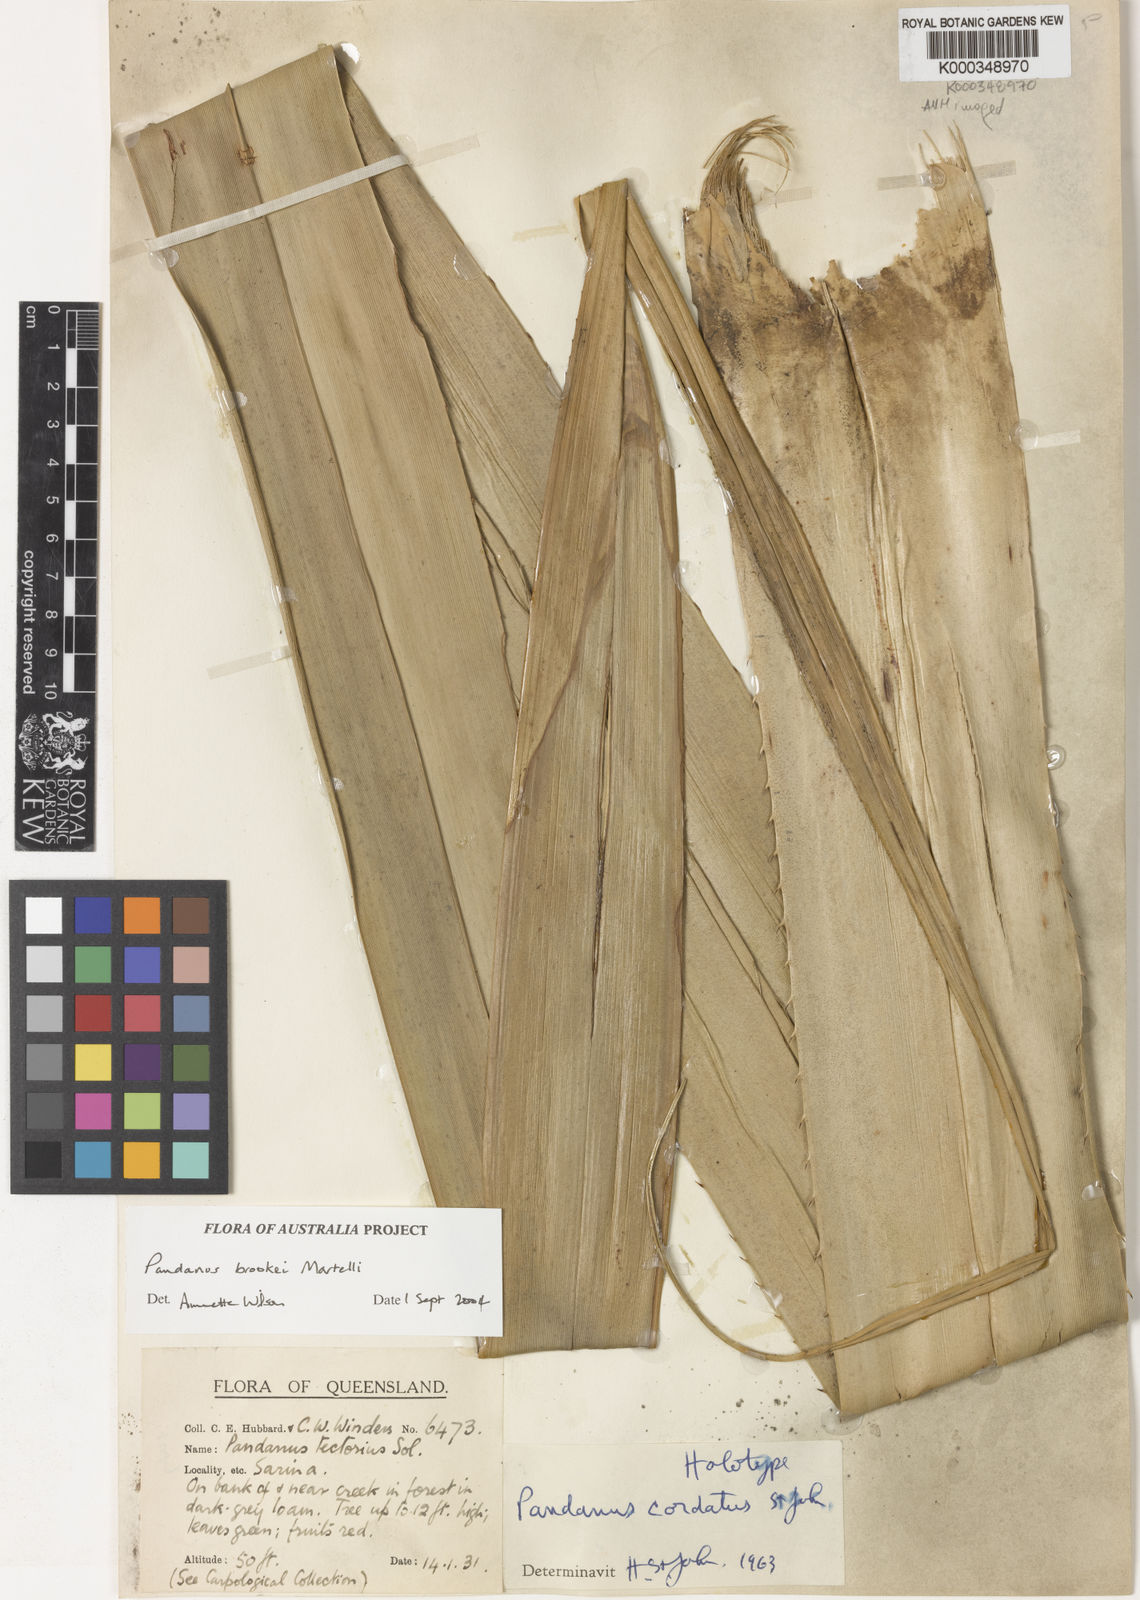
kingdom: Plantae
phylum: Tracheophyta
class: Liliopsida
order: Pandanales
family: Pandanaceae
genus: Pandanus
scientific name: Pandanus brookei
